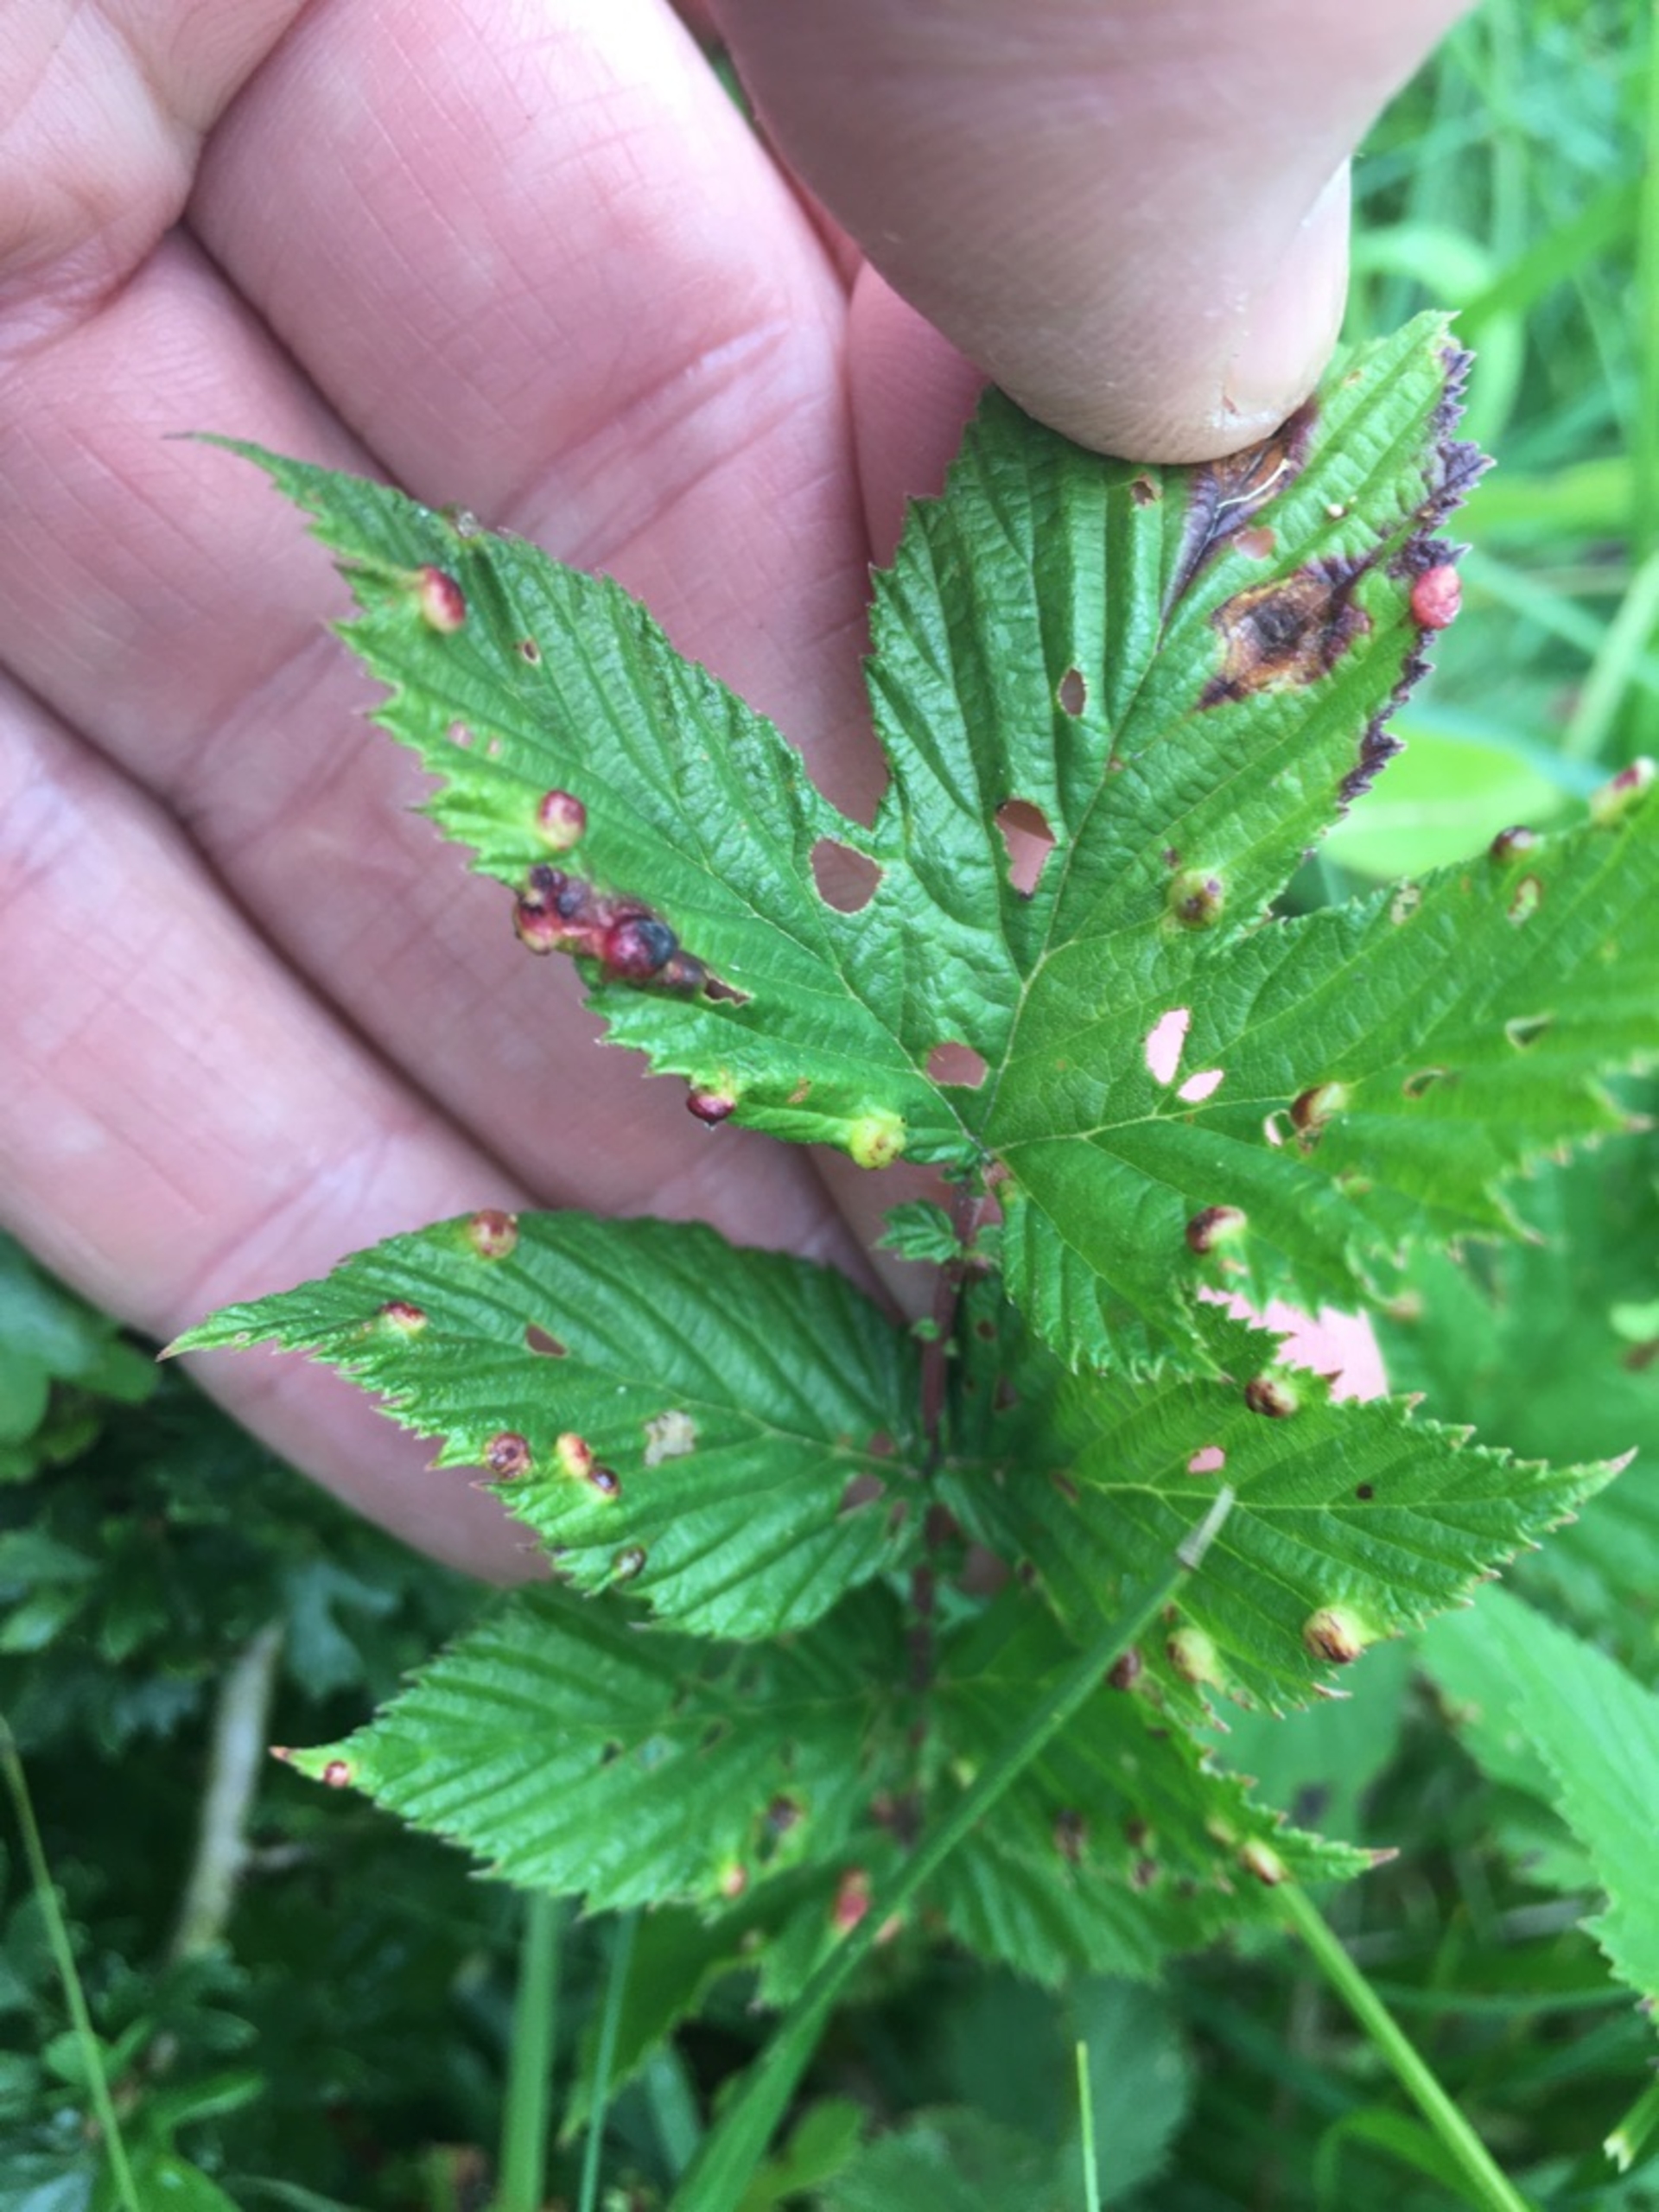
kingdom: Animalia
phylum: Arthropoda
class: Insecta
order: Diptera
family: Cecidomyiidae
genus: Dasineura
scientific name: Dasineura ulmaria
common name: Mjødurtgalmyg
